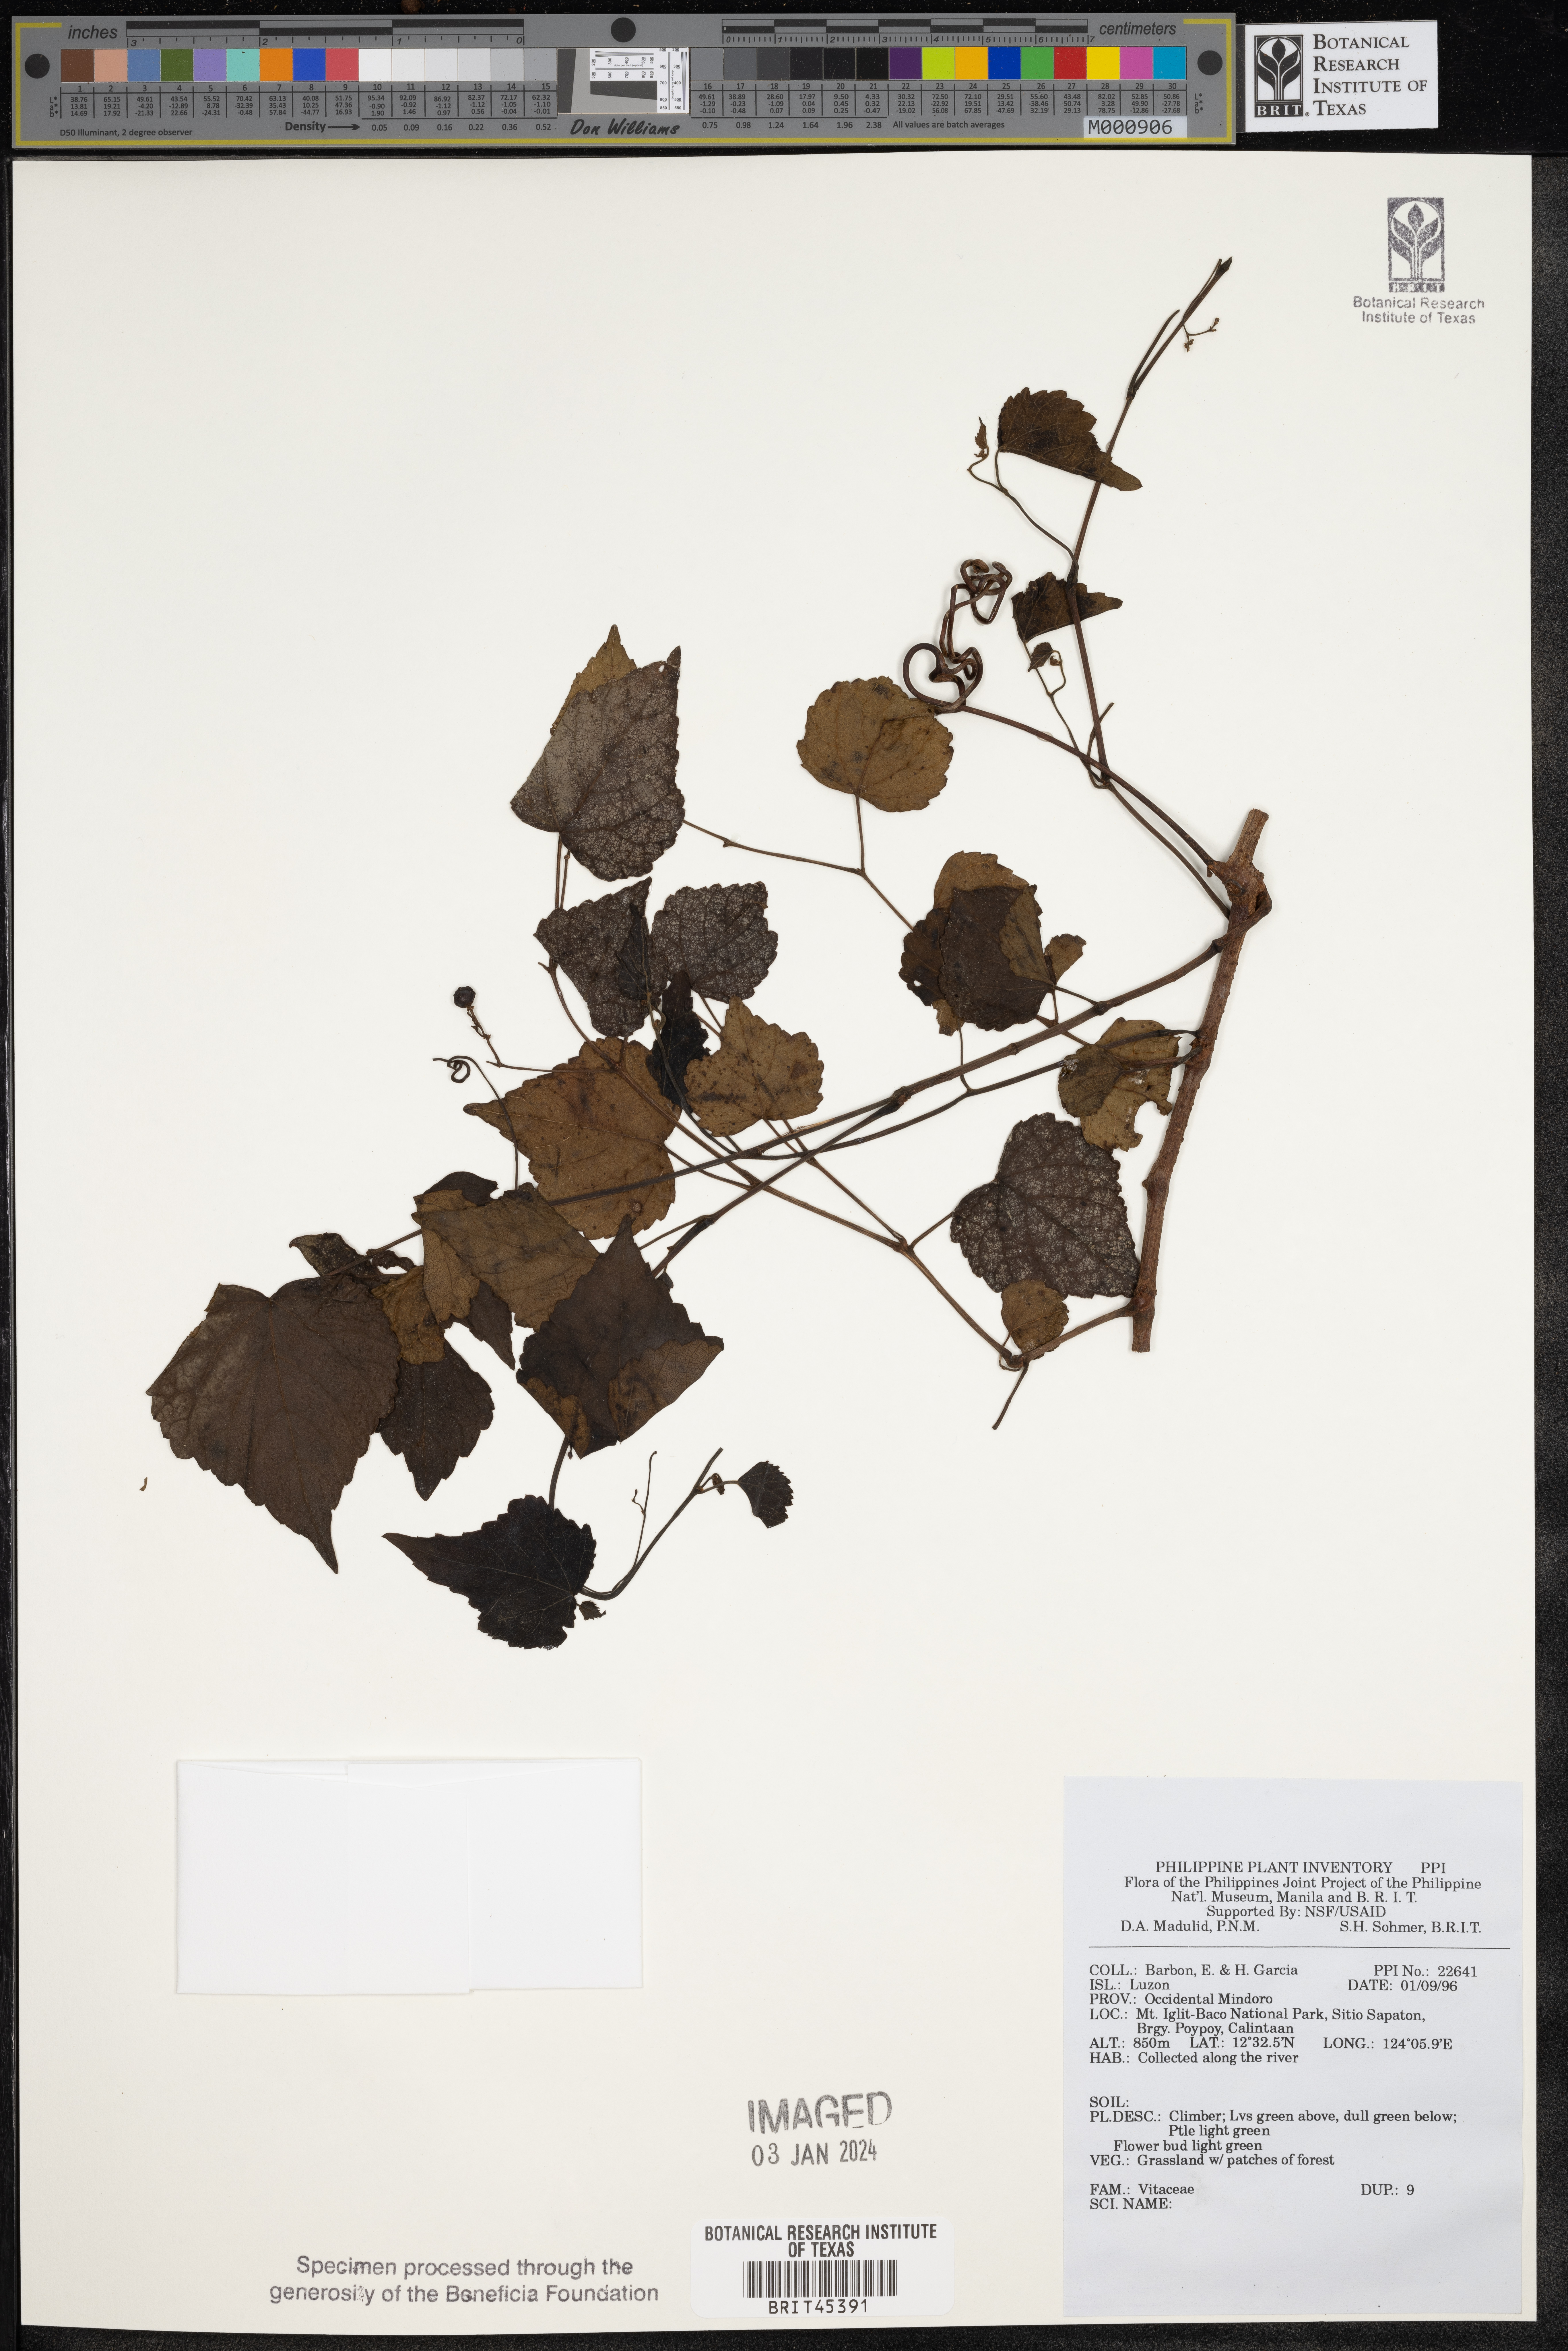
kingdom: Plantae
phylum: Tracheophyta
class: Magnoliopsida
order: Vitales
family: Vitaceae
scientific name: Vitaceae
